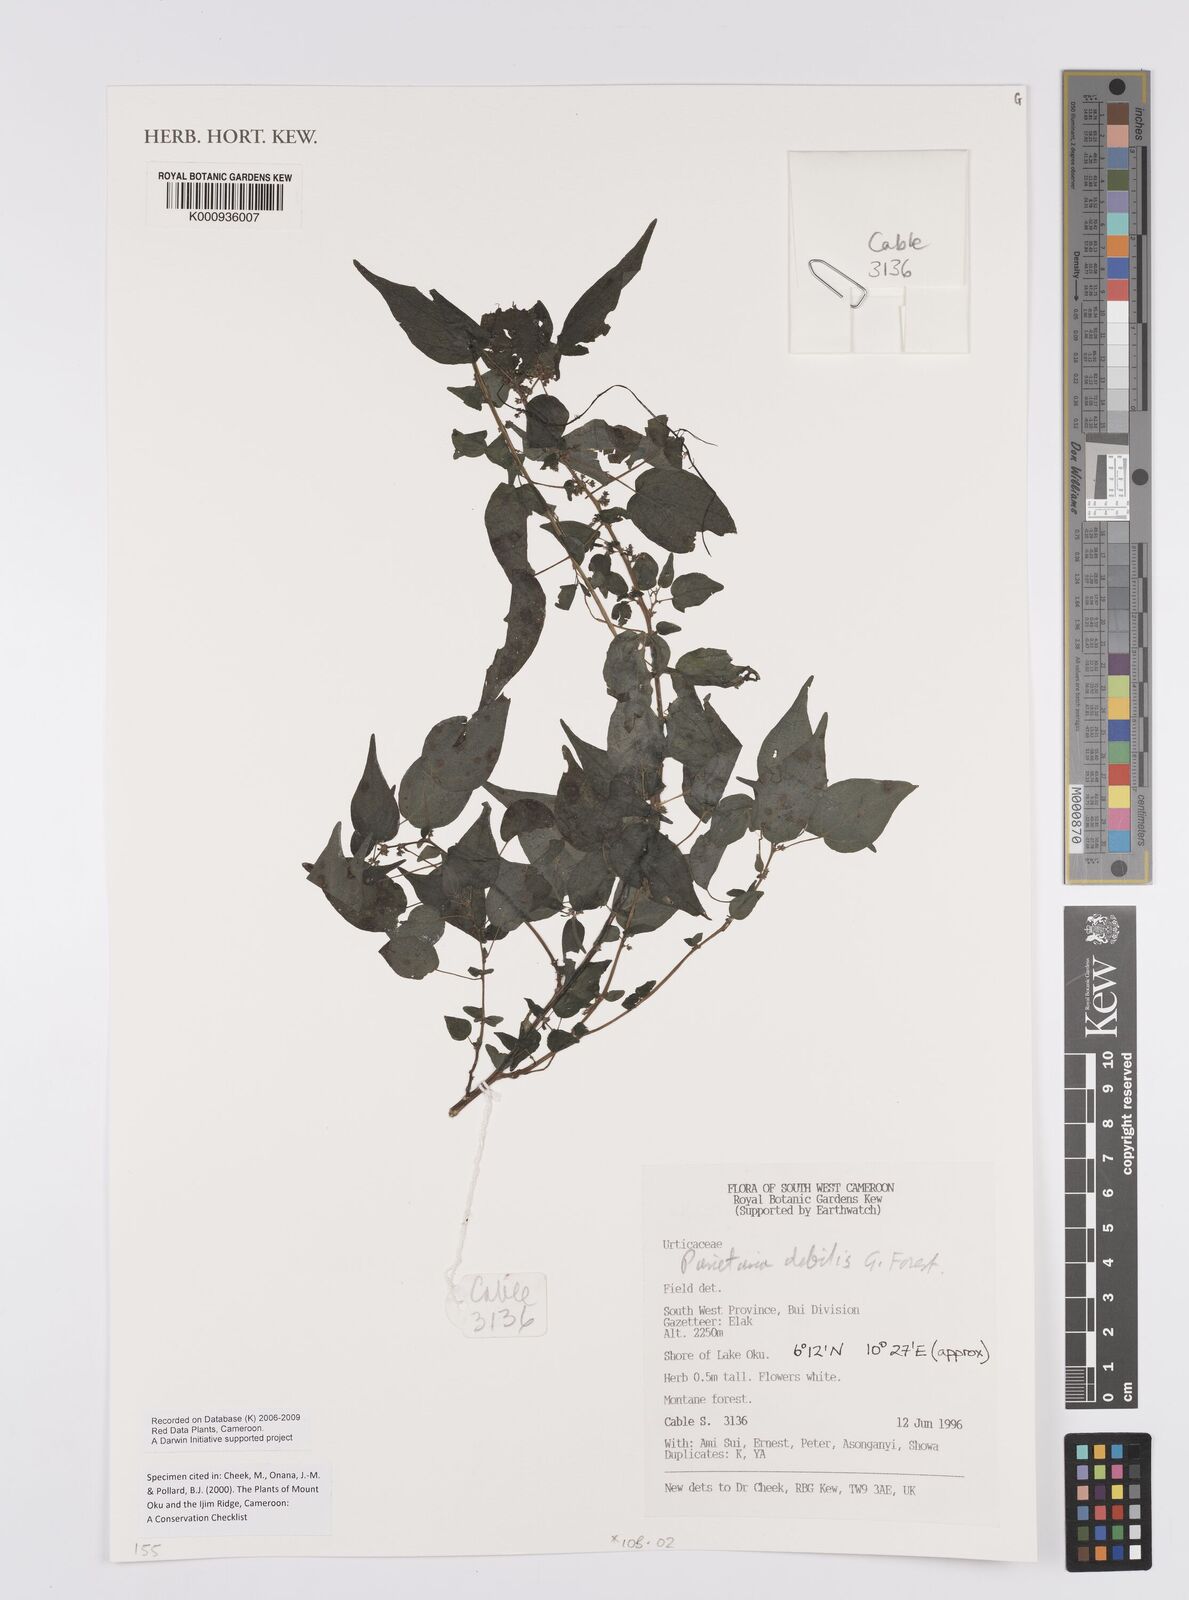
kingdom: Plantae
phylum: Tracheophyta
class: Magnoliopsida
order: Rosales
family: Urticaceae
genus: Parietaria
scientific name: Parietaria debilis
